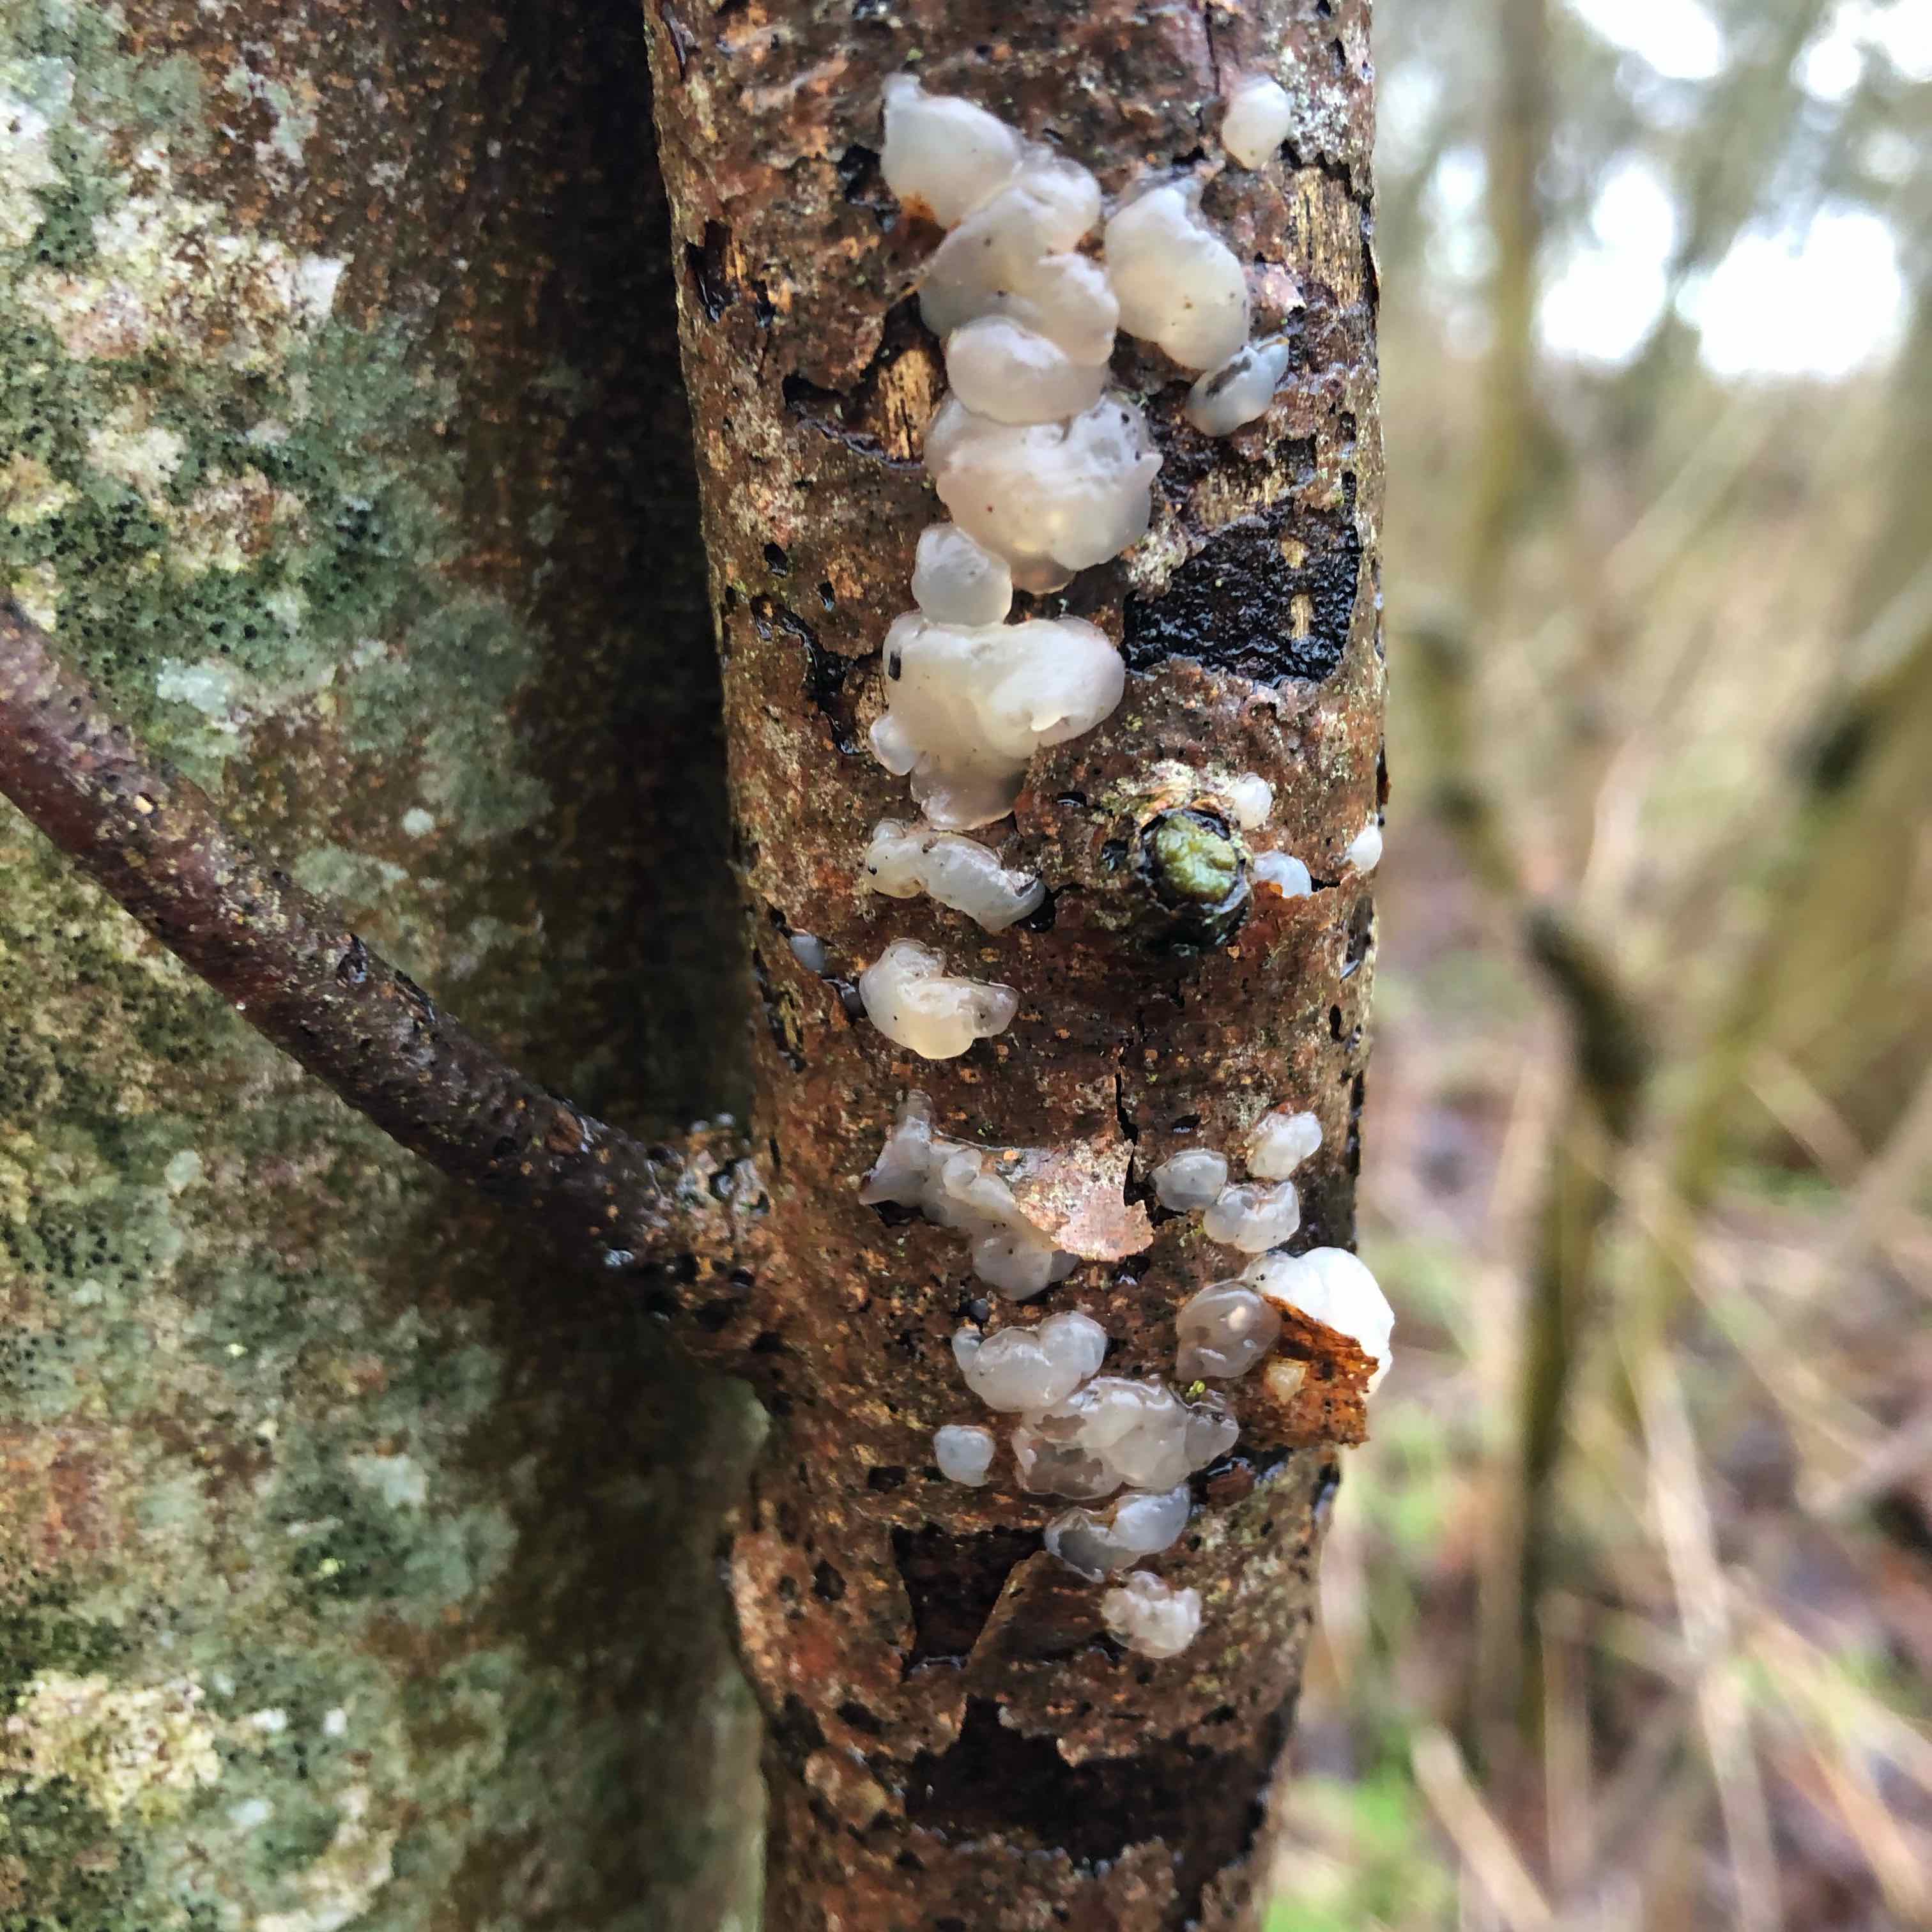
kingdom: Fungi
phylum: Basidiomycota
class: Agaricomycetes
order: Auriculariales
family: Hyaloriaceae
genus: Myxarium
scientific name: Myxarium nucleatum
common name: klar bævretop
